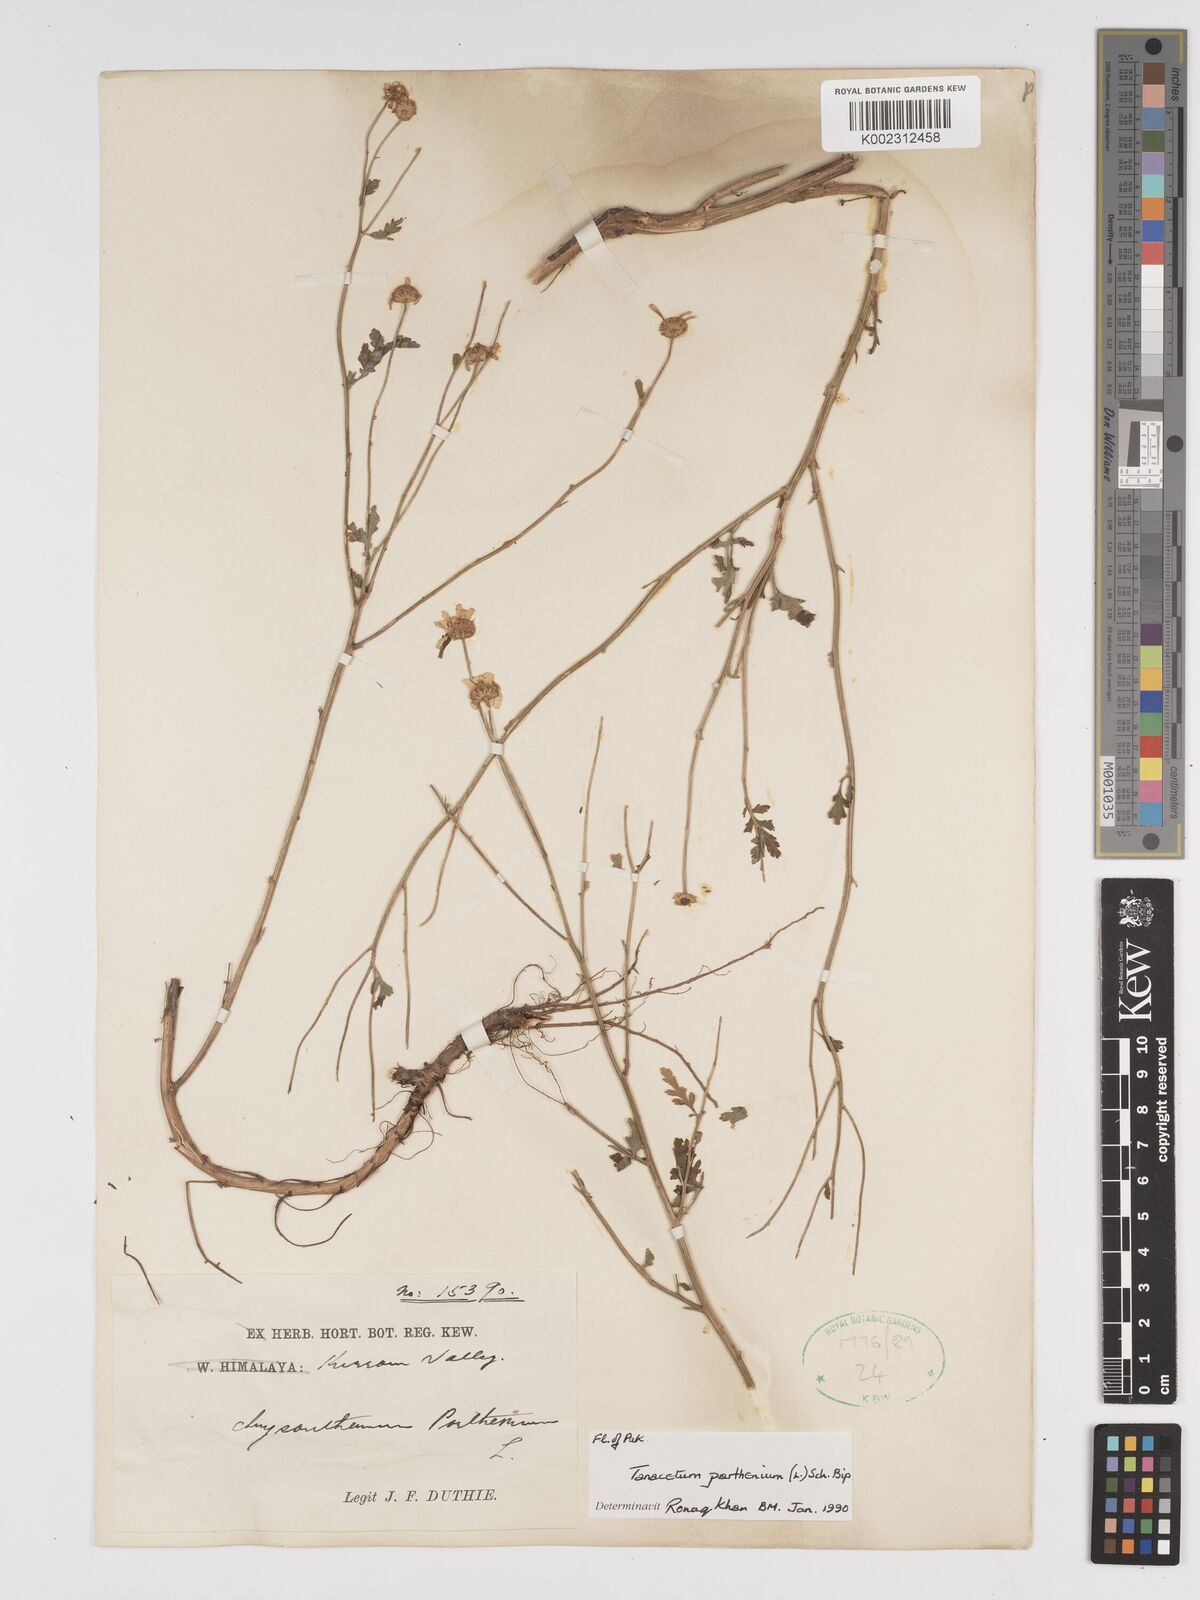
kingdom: Plantae
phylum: Tracheophyta
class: Magnoliopsida
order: Asterales
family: Asteraceae
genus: Tanacetum
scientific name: Tanacetum parthenium
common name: Feverfew
